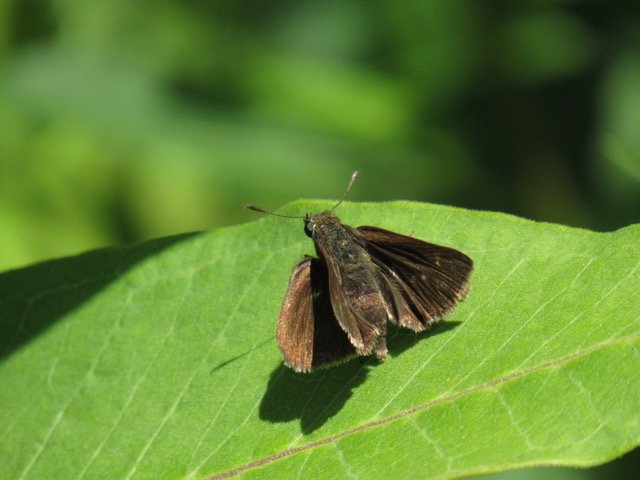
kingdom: Animalia
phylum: Arthropoda
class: Insecta
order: Lepidoptera
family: Hesperiidae
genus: Euphyes
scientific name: Euphyes vestris
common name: Dun Skipper
